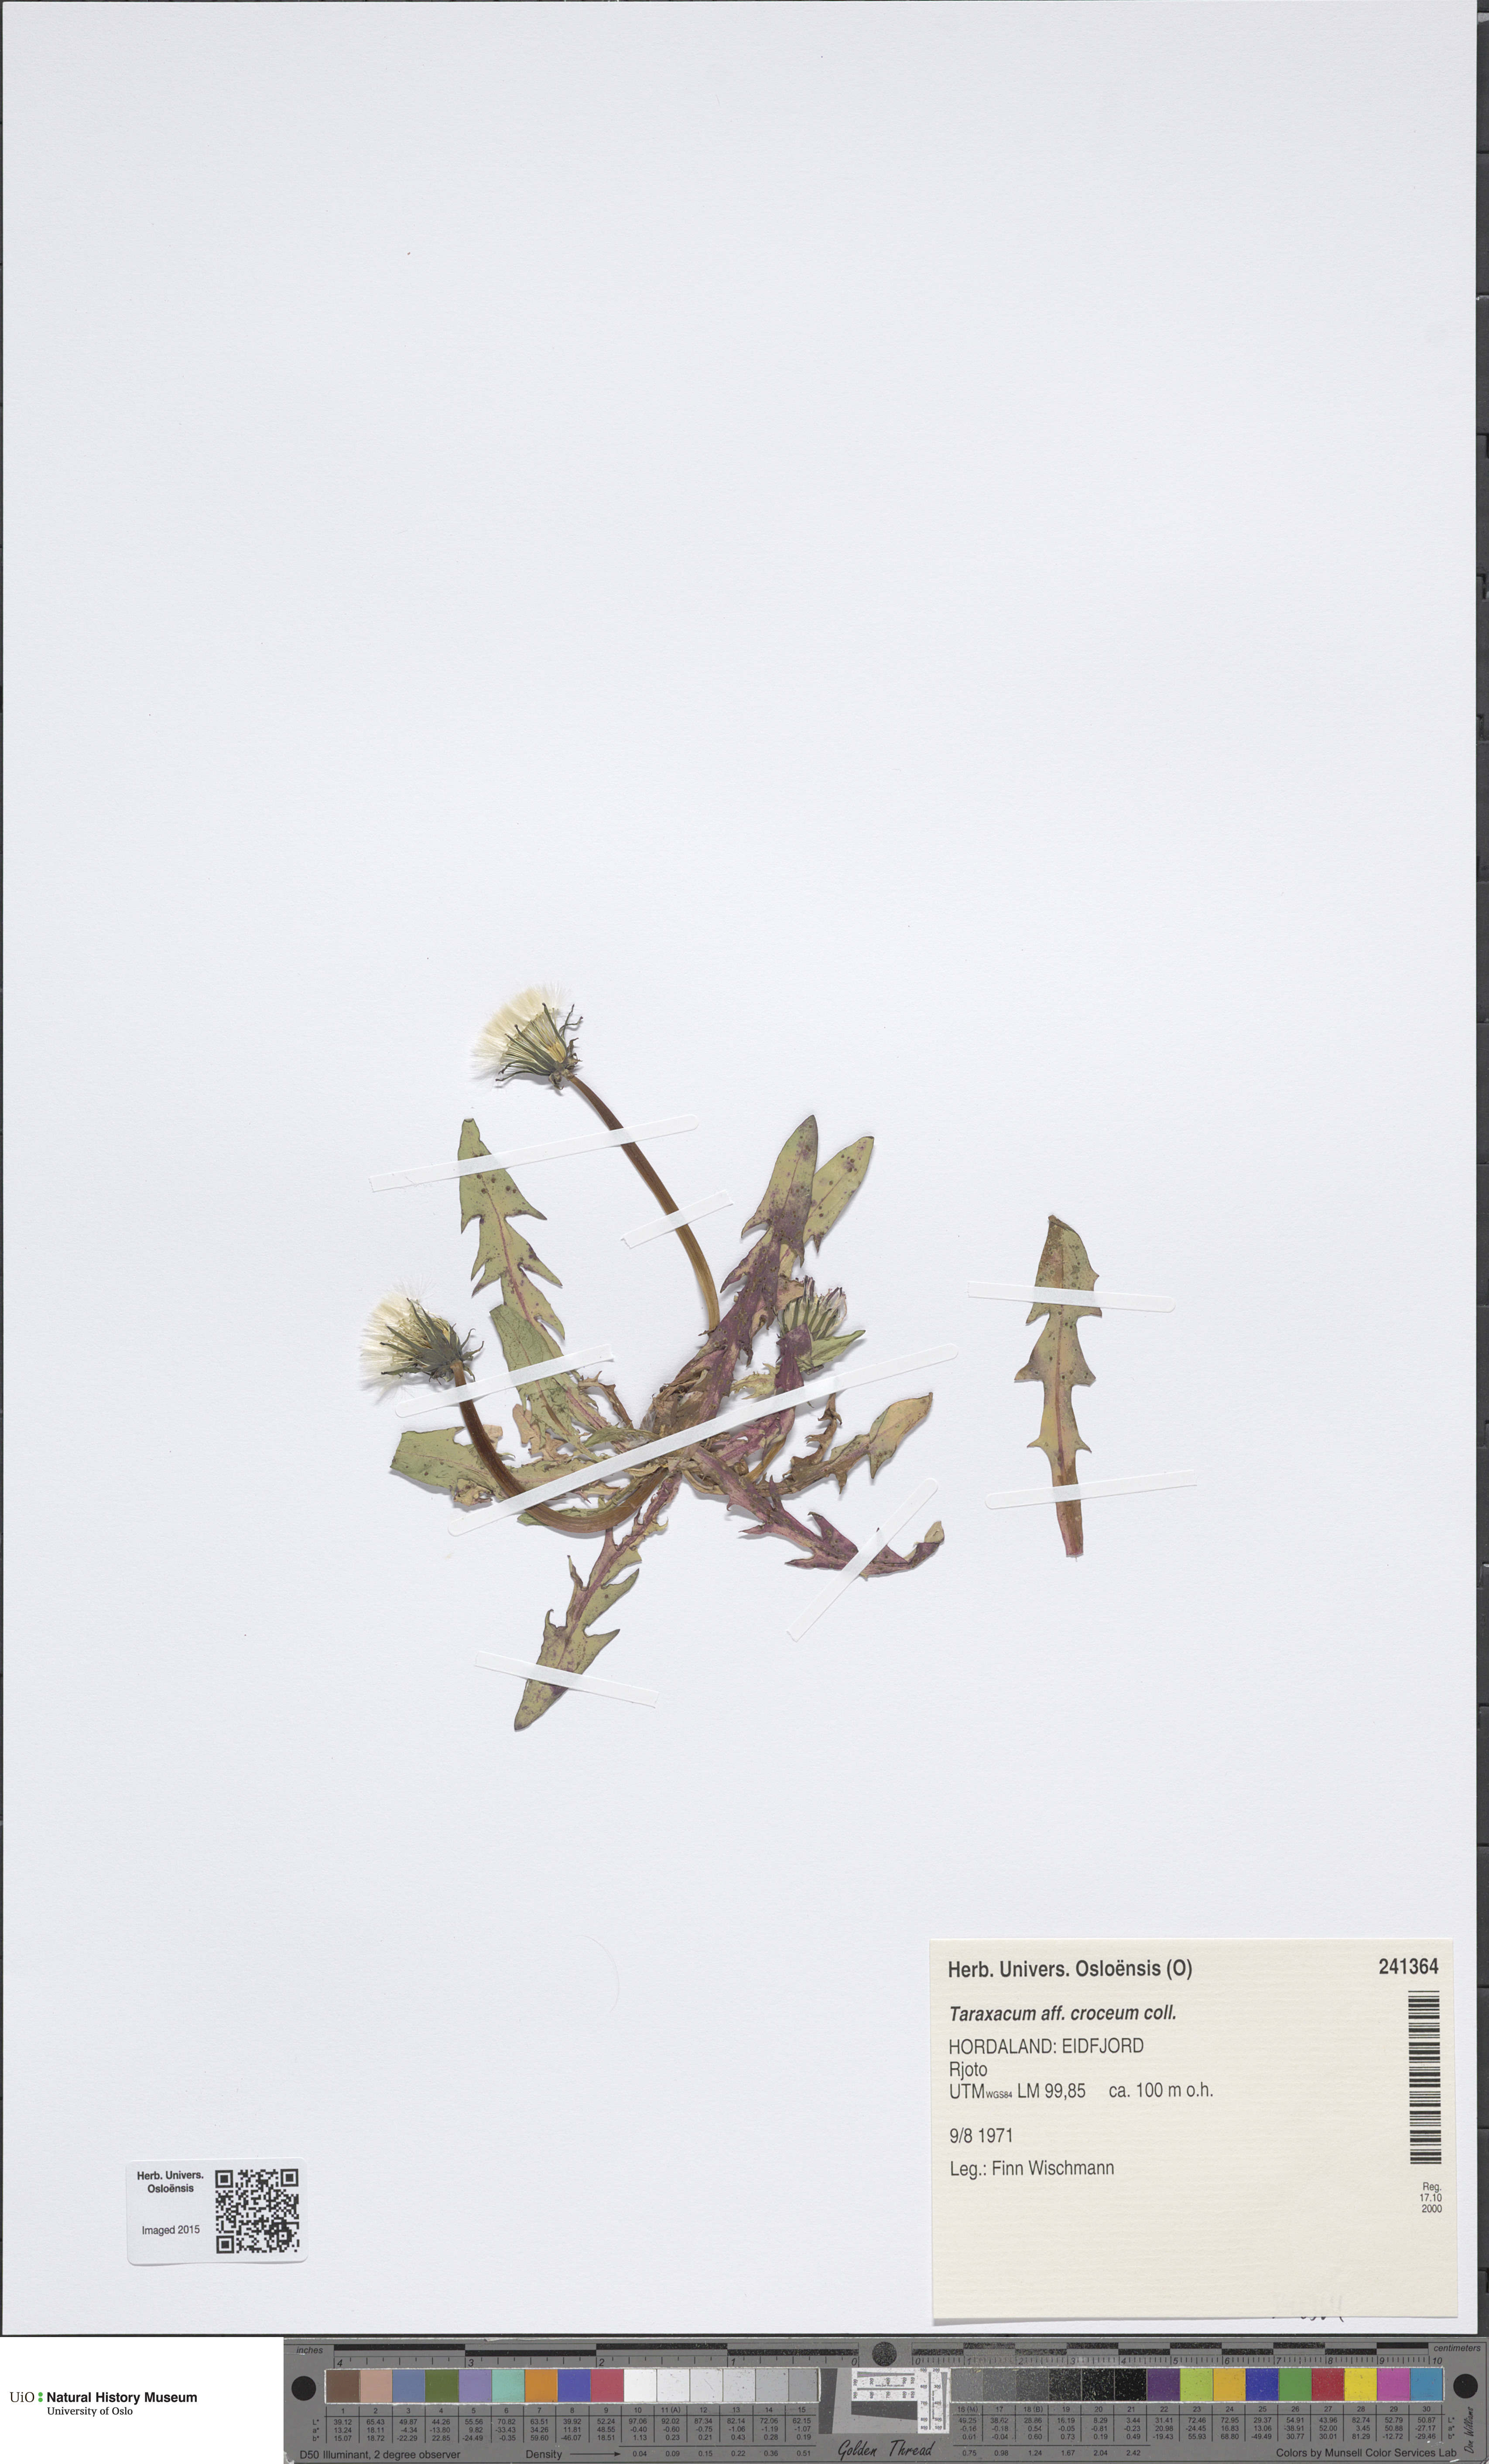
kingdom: Plantae
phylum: Tracheophyta
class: Magnoliopsida
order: Asterales
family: Asteraceae
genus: Taraxacum
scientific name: Taraxacum croceum
